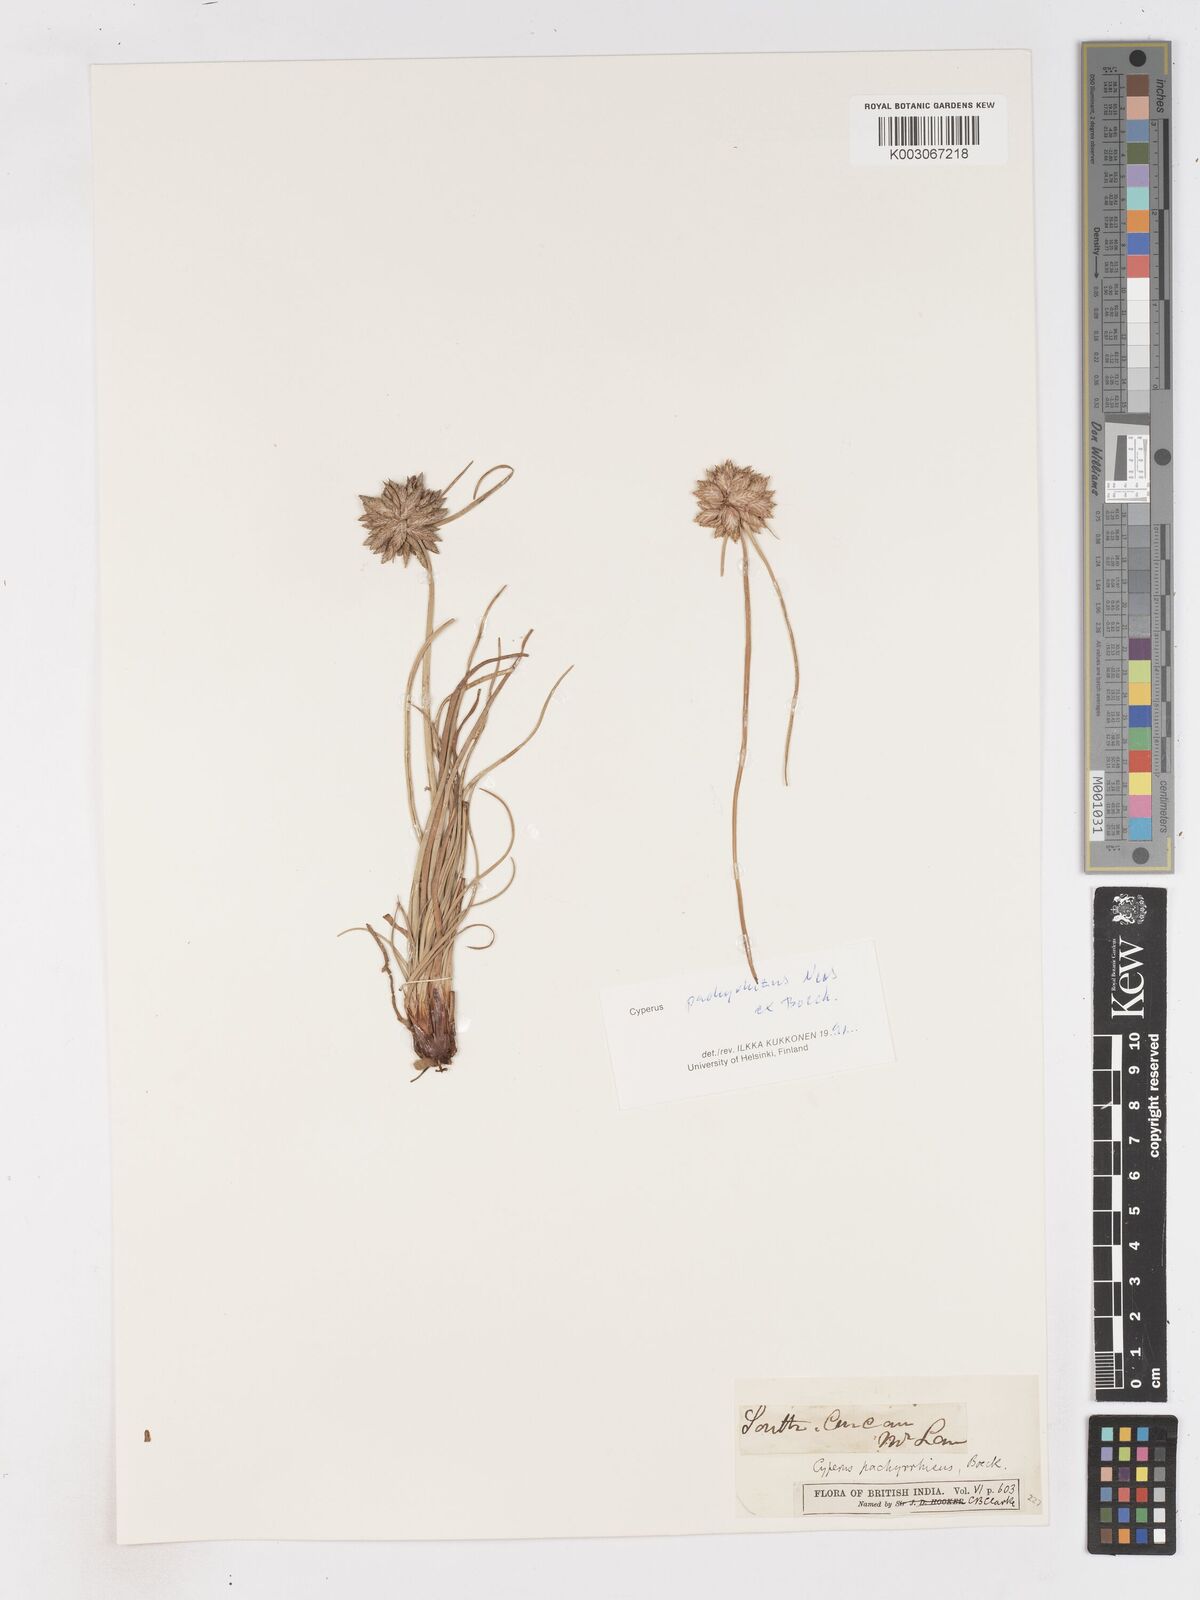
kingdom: Plantae
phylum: Tracheophyta
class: Liliopsida
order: Poales
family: Cyperaceae
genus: Cyperus
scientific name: Cyperus conglomeratus
